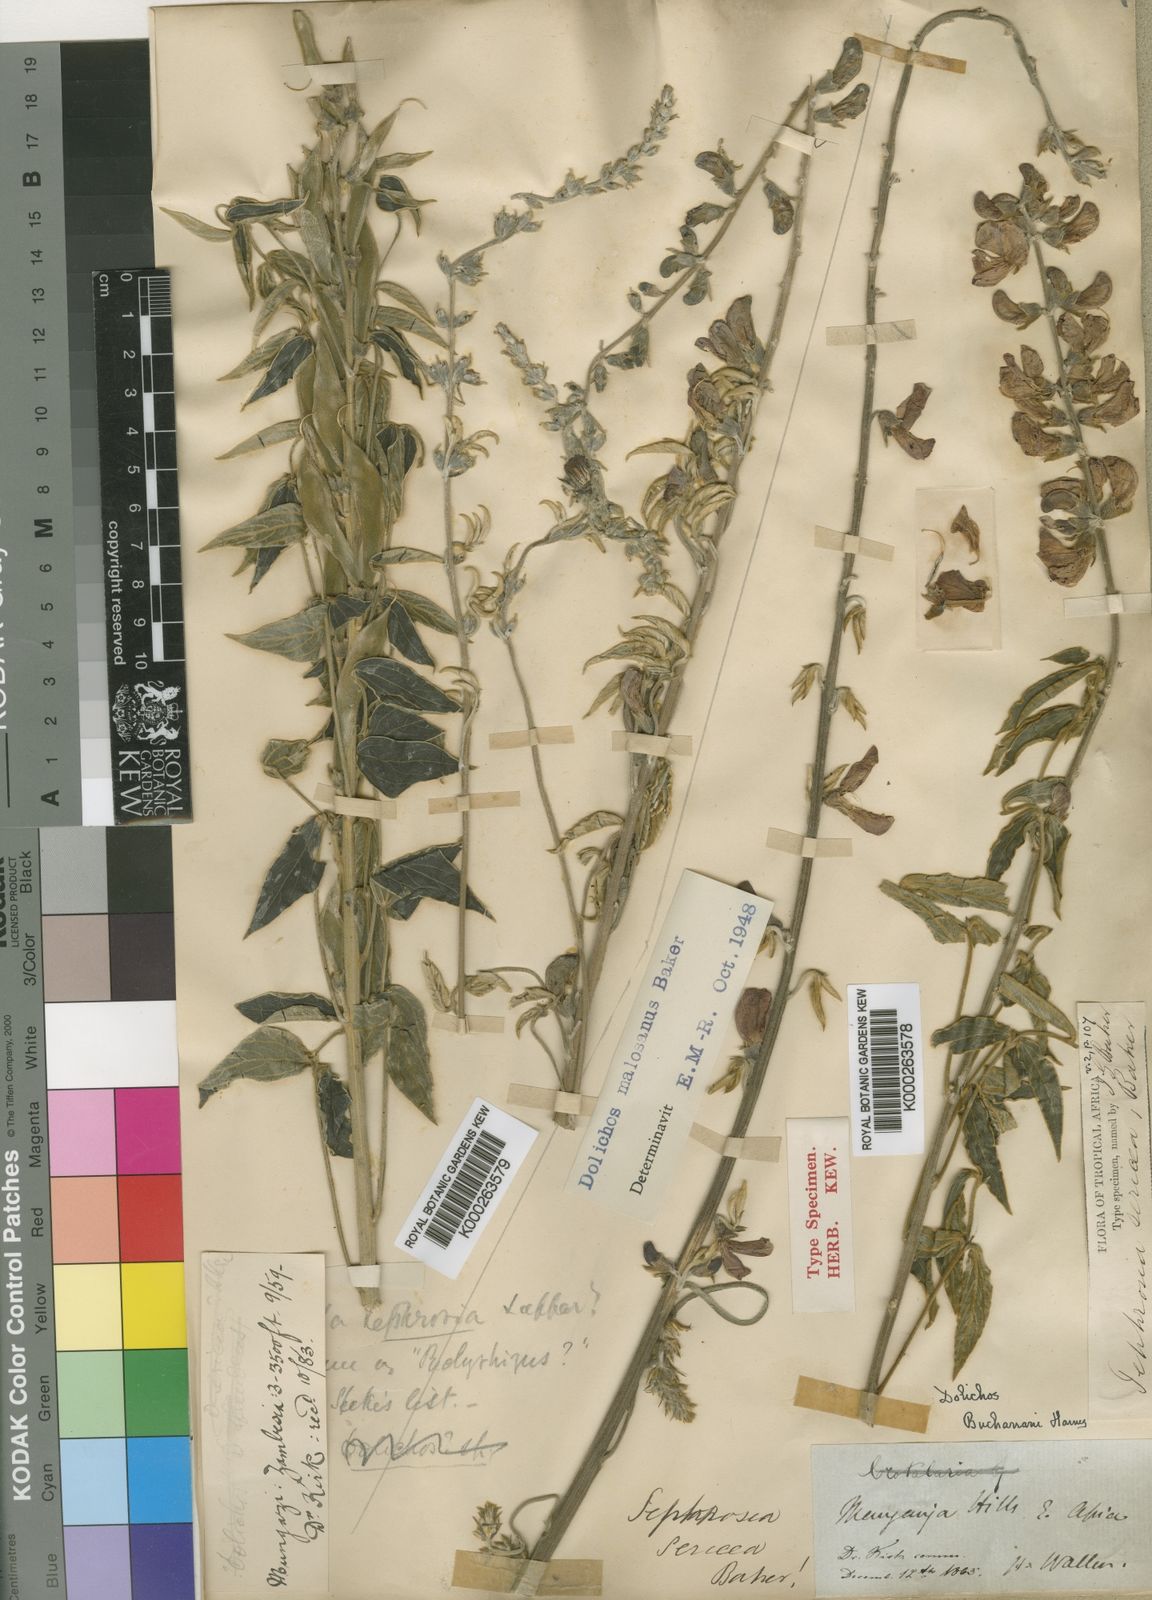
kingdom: Plantae
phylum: Tracheophyta
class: Magnoliopsida
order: Fabales
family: Fabaceae
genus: Dolichos
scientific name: Dolichos kilimandscharicus
